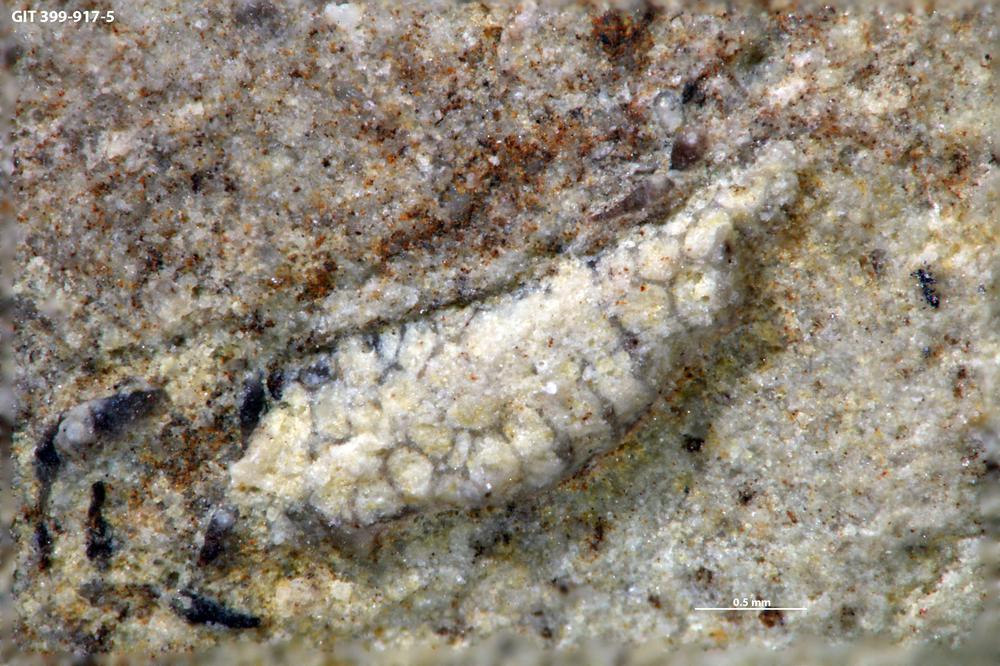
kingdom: Animalia
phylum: Bryozoa
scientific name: Bryozoa
